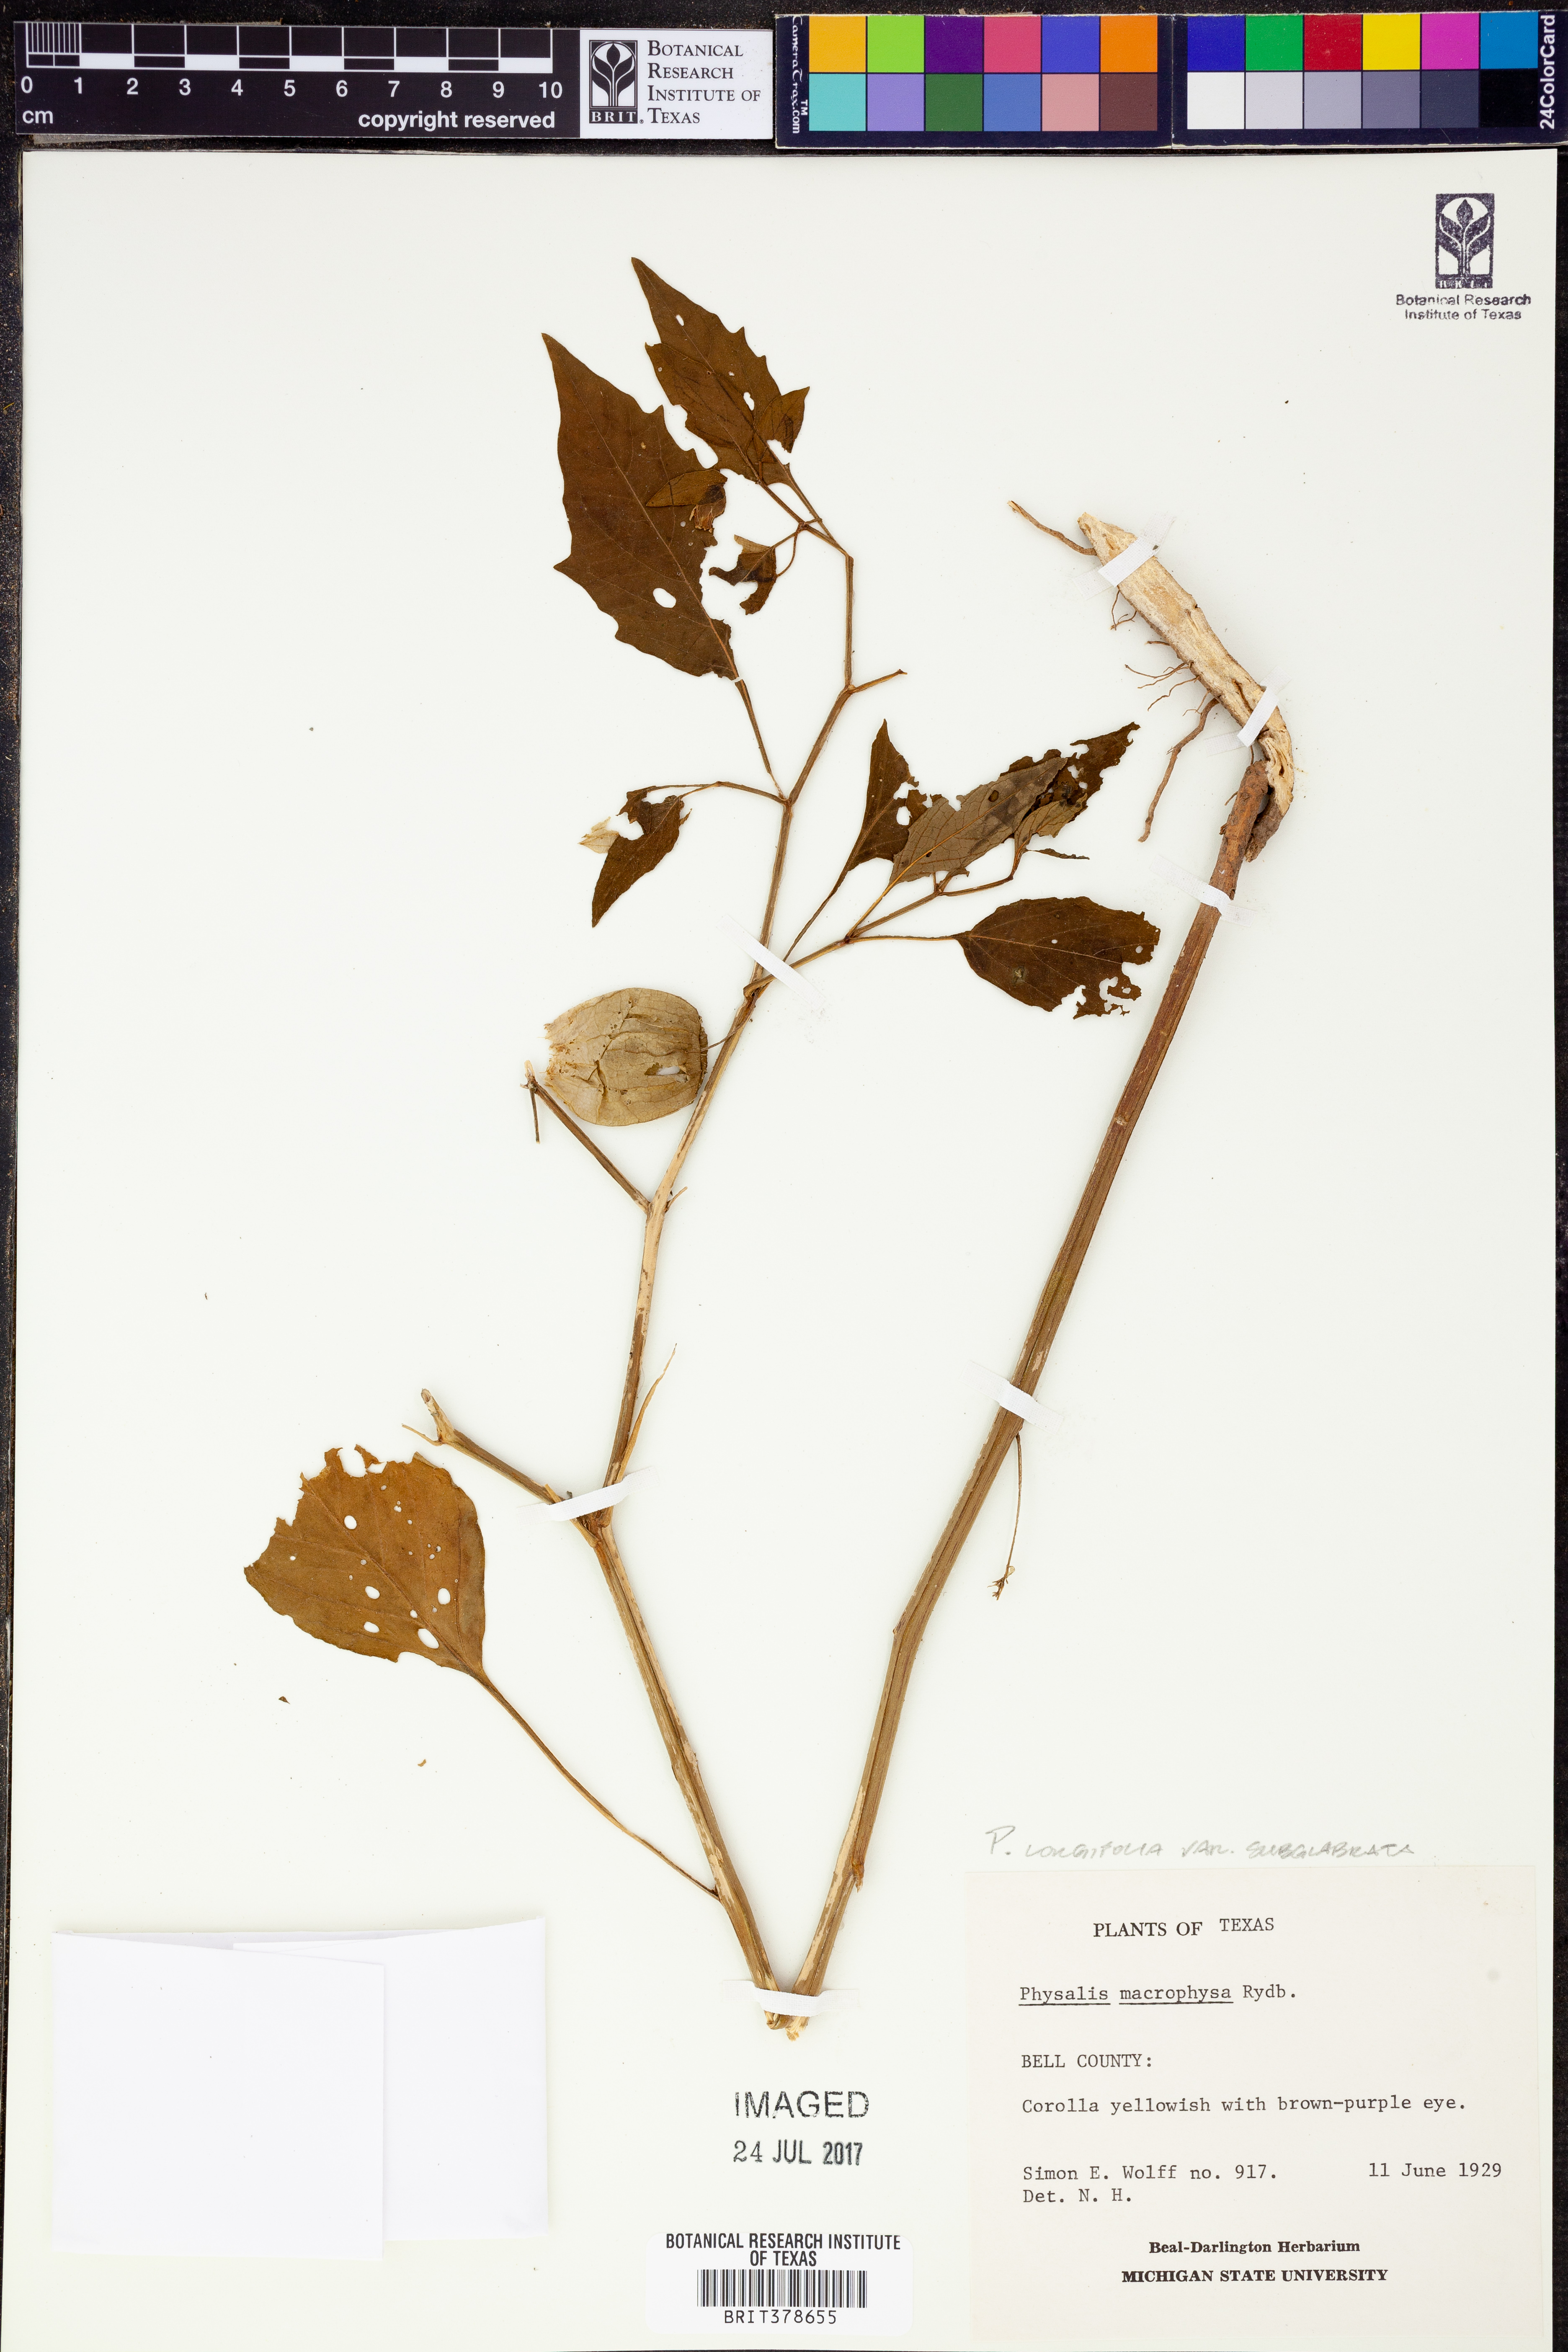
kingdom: Plantae
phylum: Tracheophyta
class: Magnoliopsida
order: Solanales
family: Solanaceae
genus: Physalis
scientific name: Physalis longifolia
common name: Common ground-cherry
